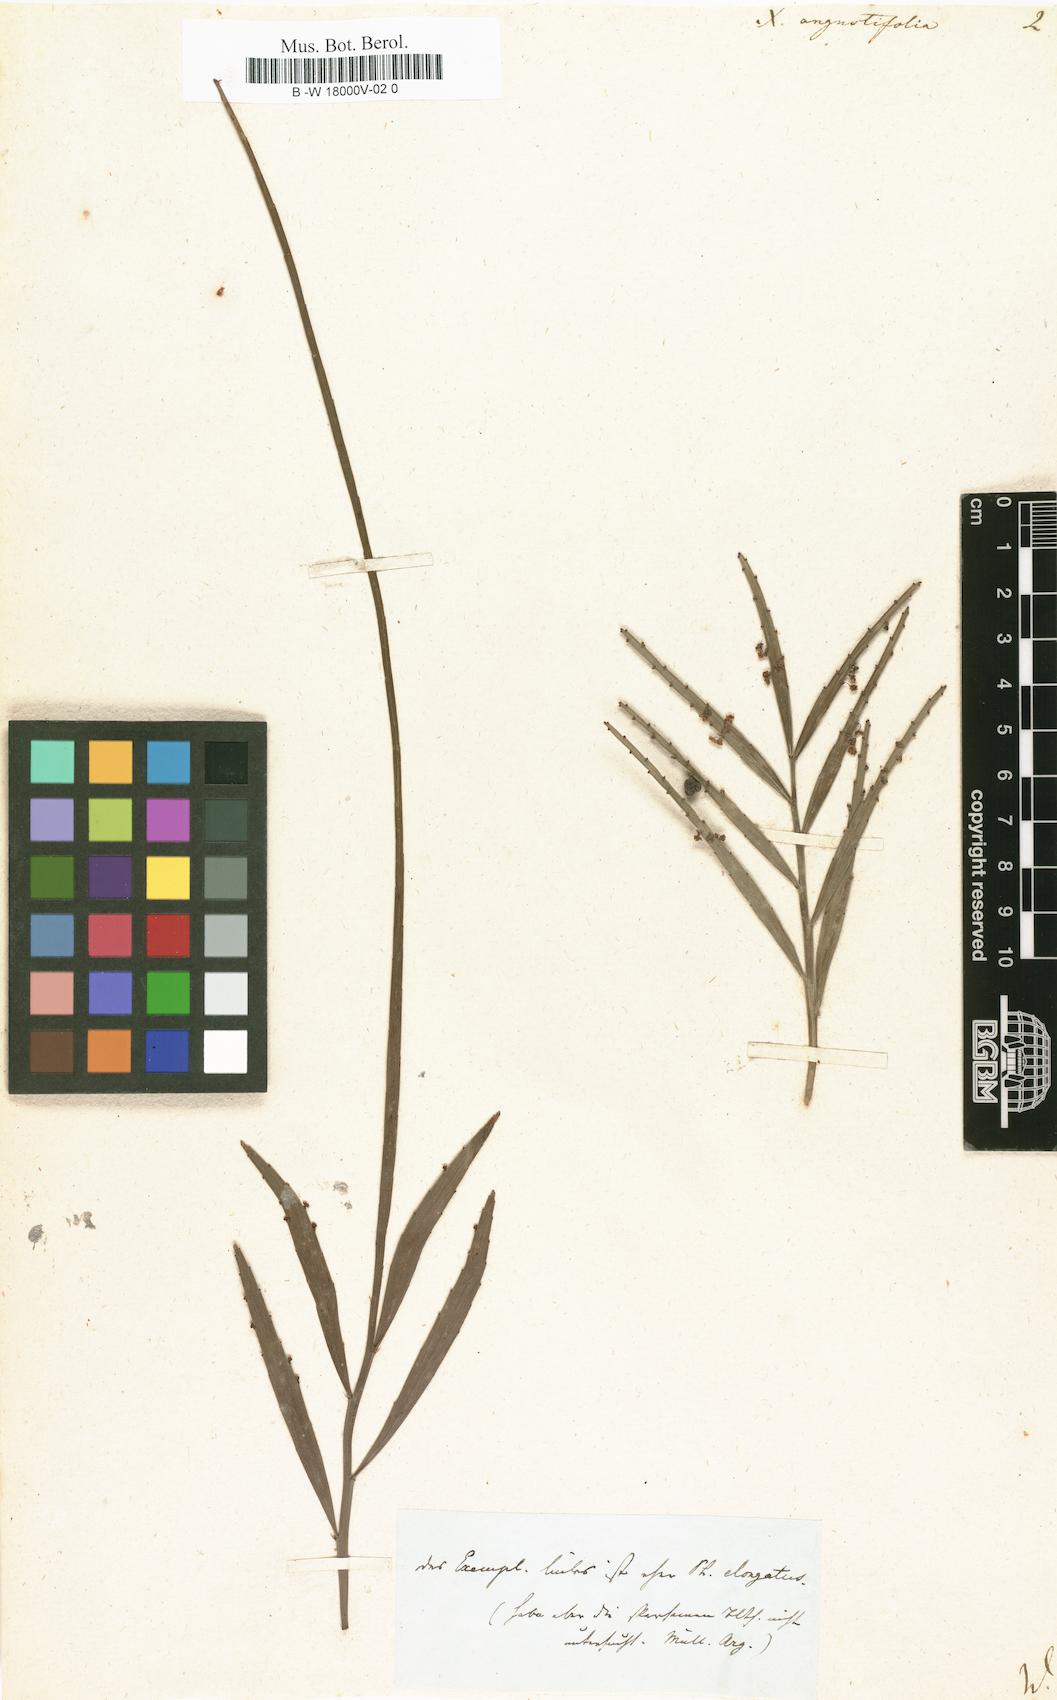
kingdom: Plantae
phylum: Tracheophyta
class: Magnoliopsida
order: Malpighiales
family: Phyllanthaceae
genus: Phyllanthus
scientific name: Phyllanthus angustifolius
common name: Foliage flower
